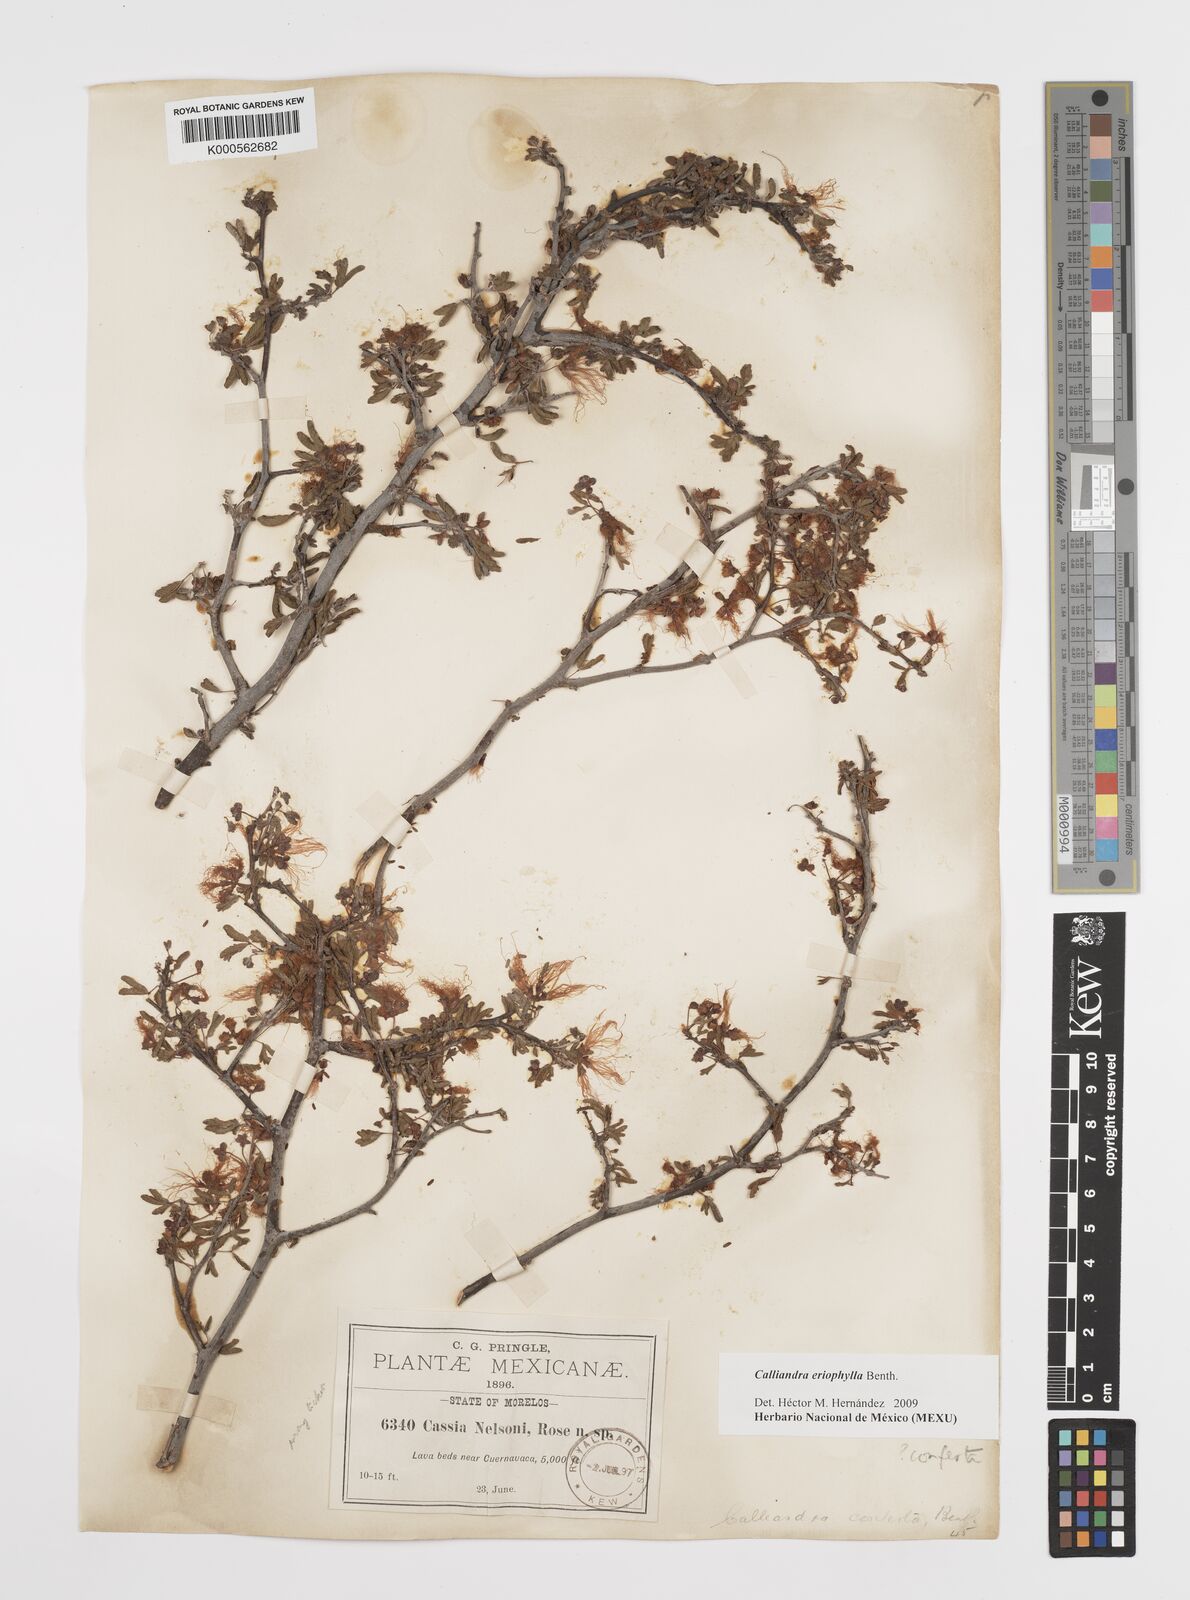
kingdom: Plantae
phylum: Tracheophyta
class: Magnoliopsida
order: Fabales
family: Fabaceae
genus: Calliandra
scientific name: Calliandra eriophylla
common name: Fairy-duster
